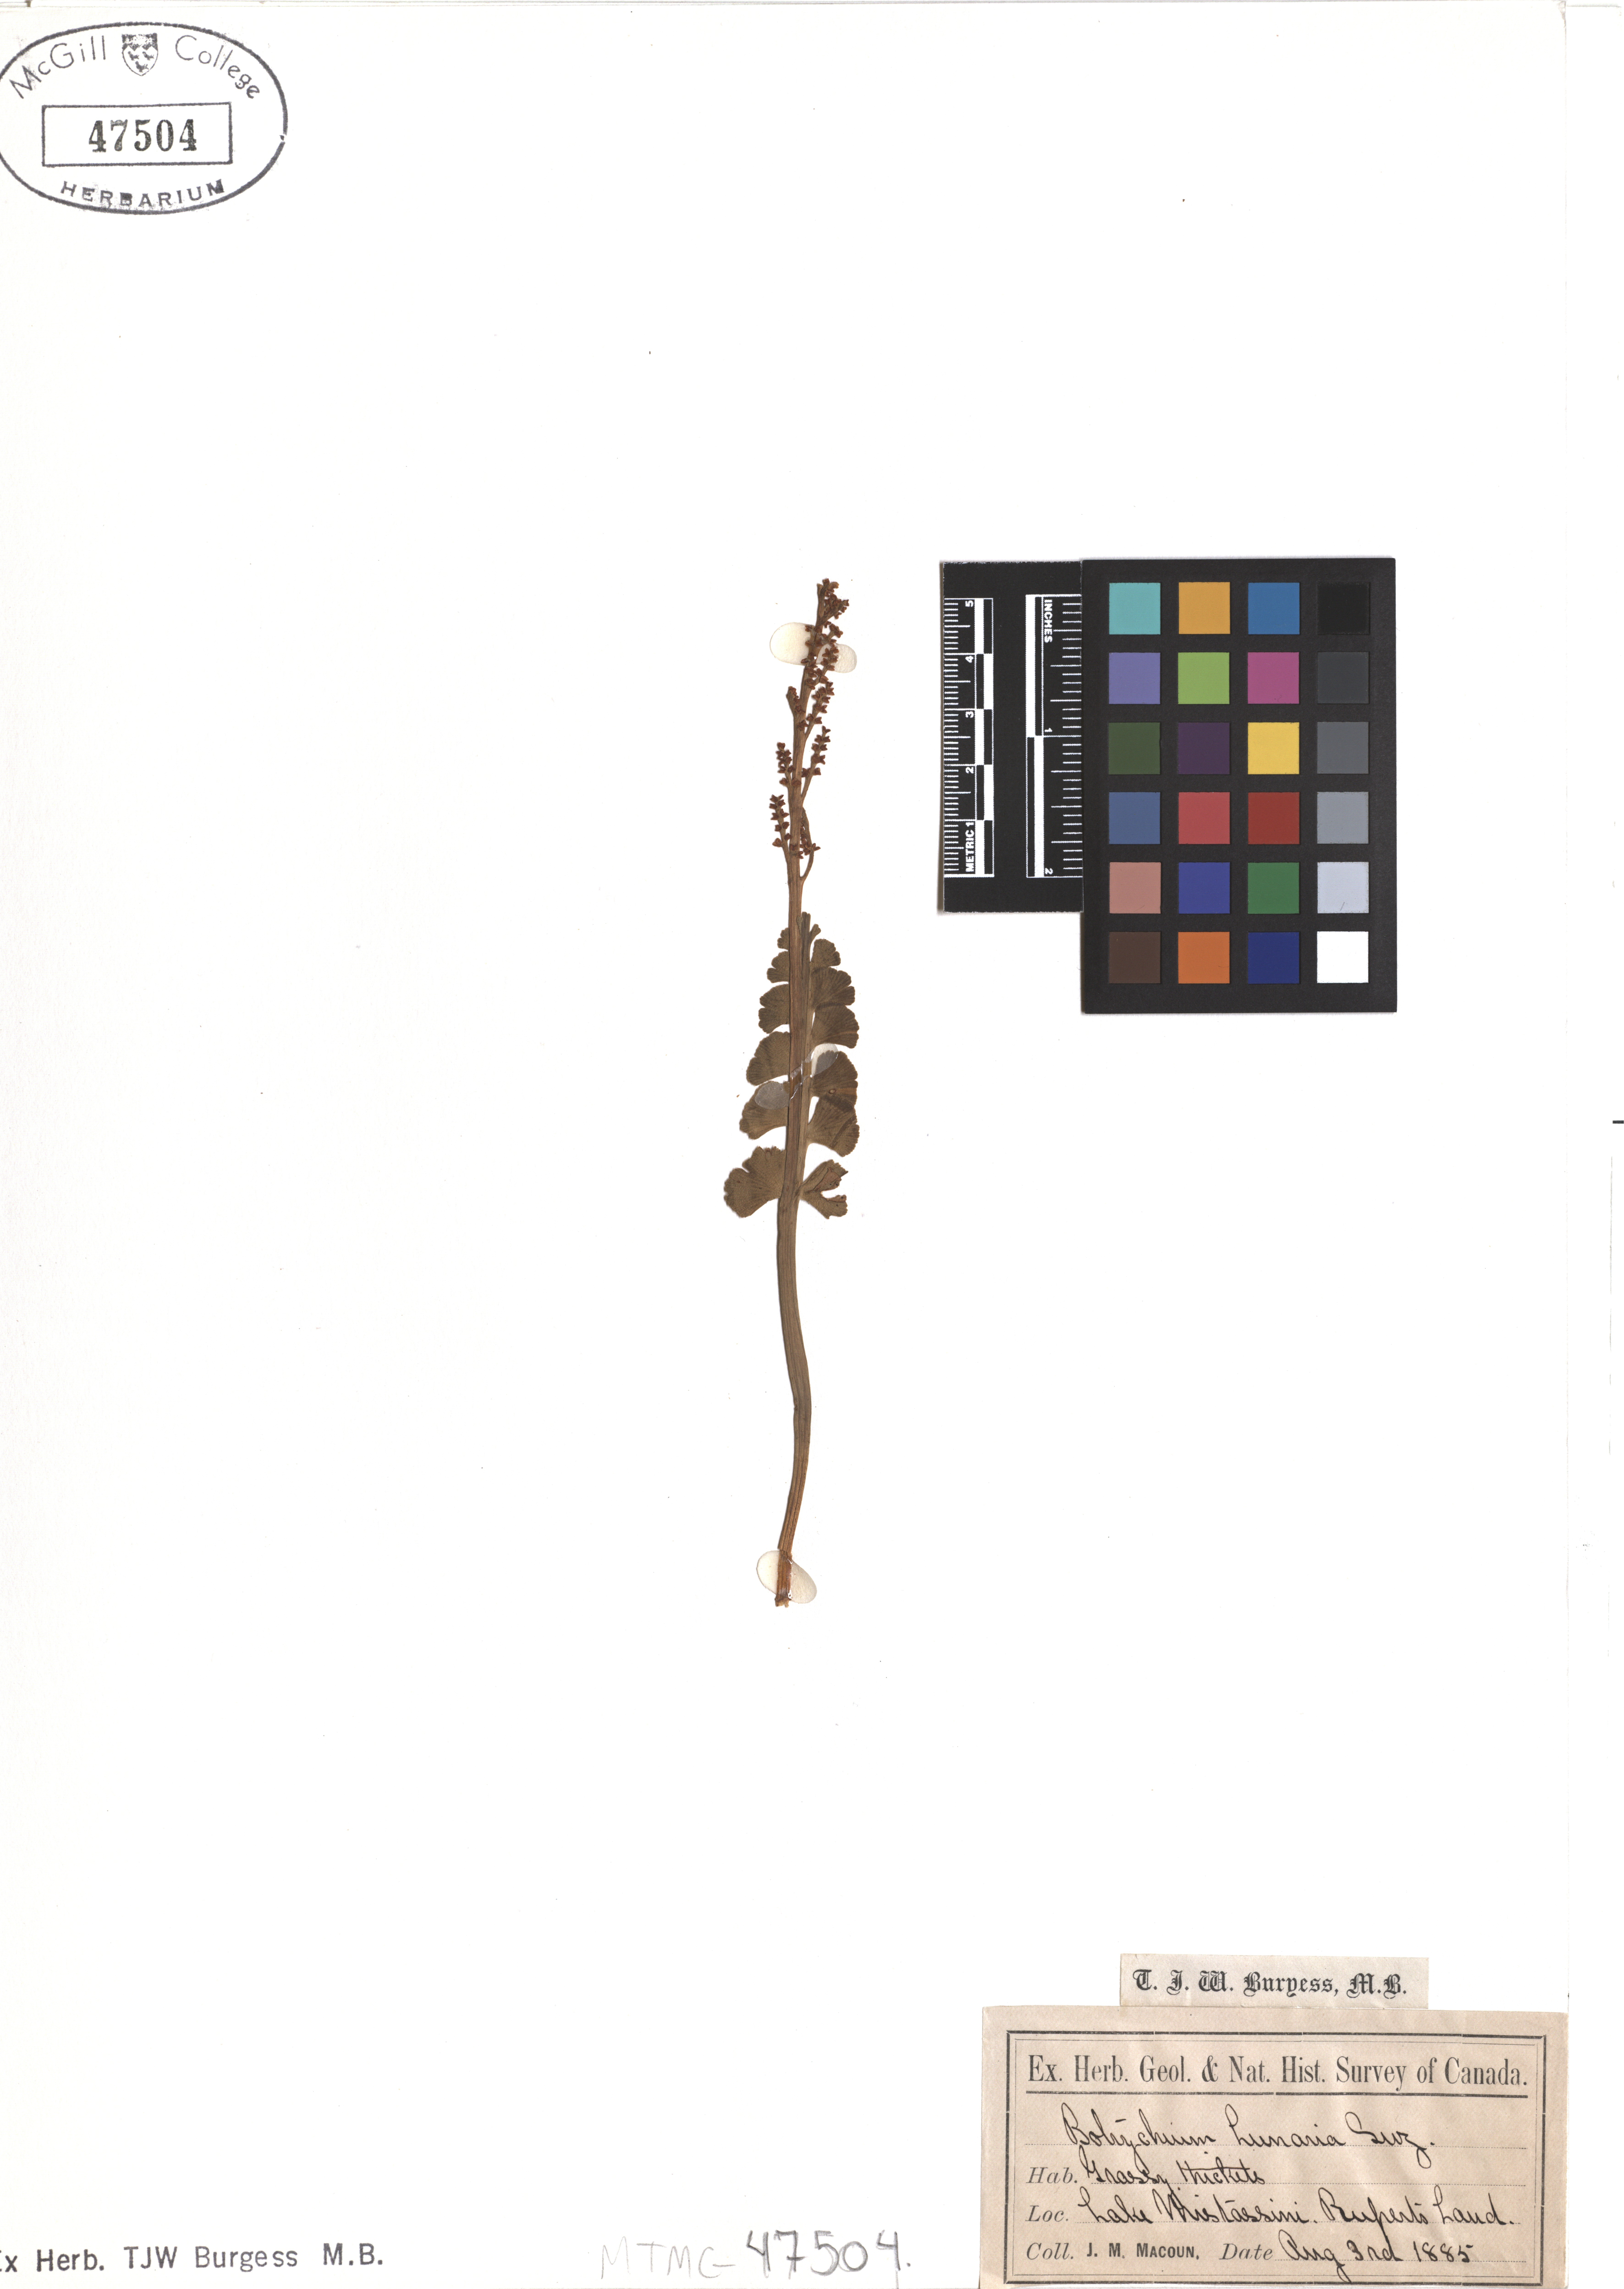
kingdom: Plantae
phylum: Tracheophyta
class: Polypodiopsida
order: Ophioglossales
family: Ophioglossaceae
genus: Botrychium
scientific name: Botrychium lunaria
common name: Moonwort
